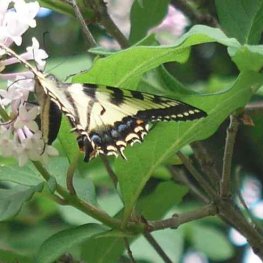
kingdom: Animalia
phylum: Arthropoda
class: Insecta
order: Lepidoptera
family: Papilionidae
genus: Pterourus
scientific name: Pterourus canadensis
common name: Canadian Tiger Swallowtail
